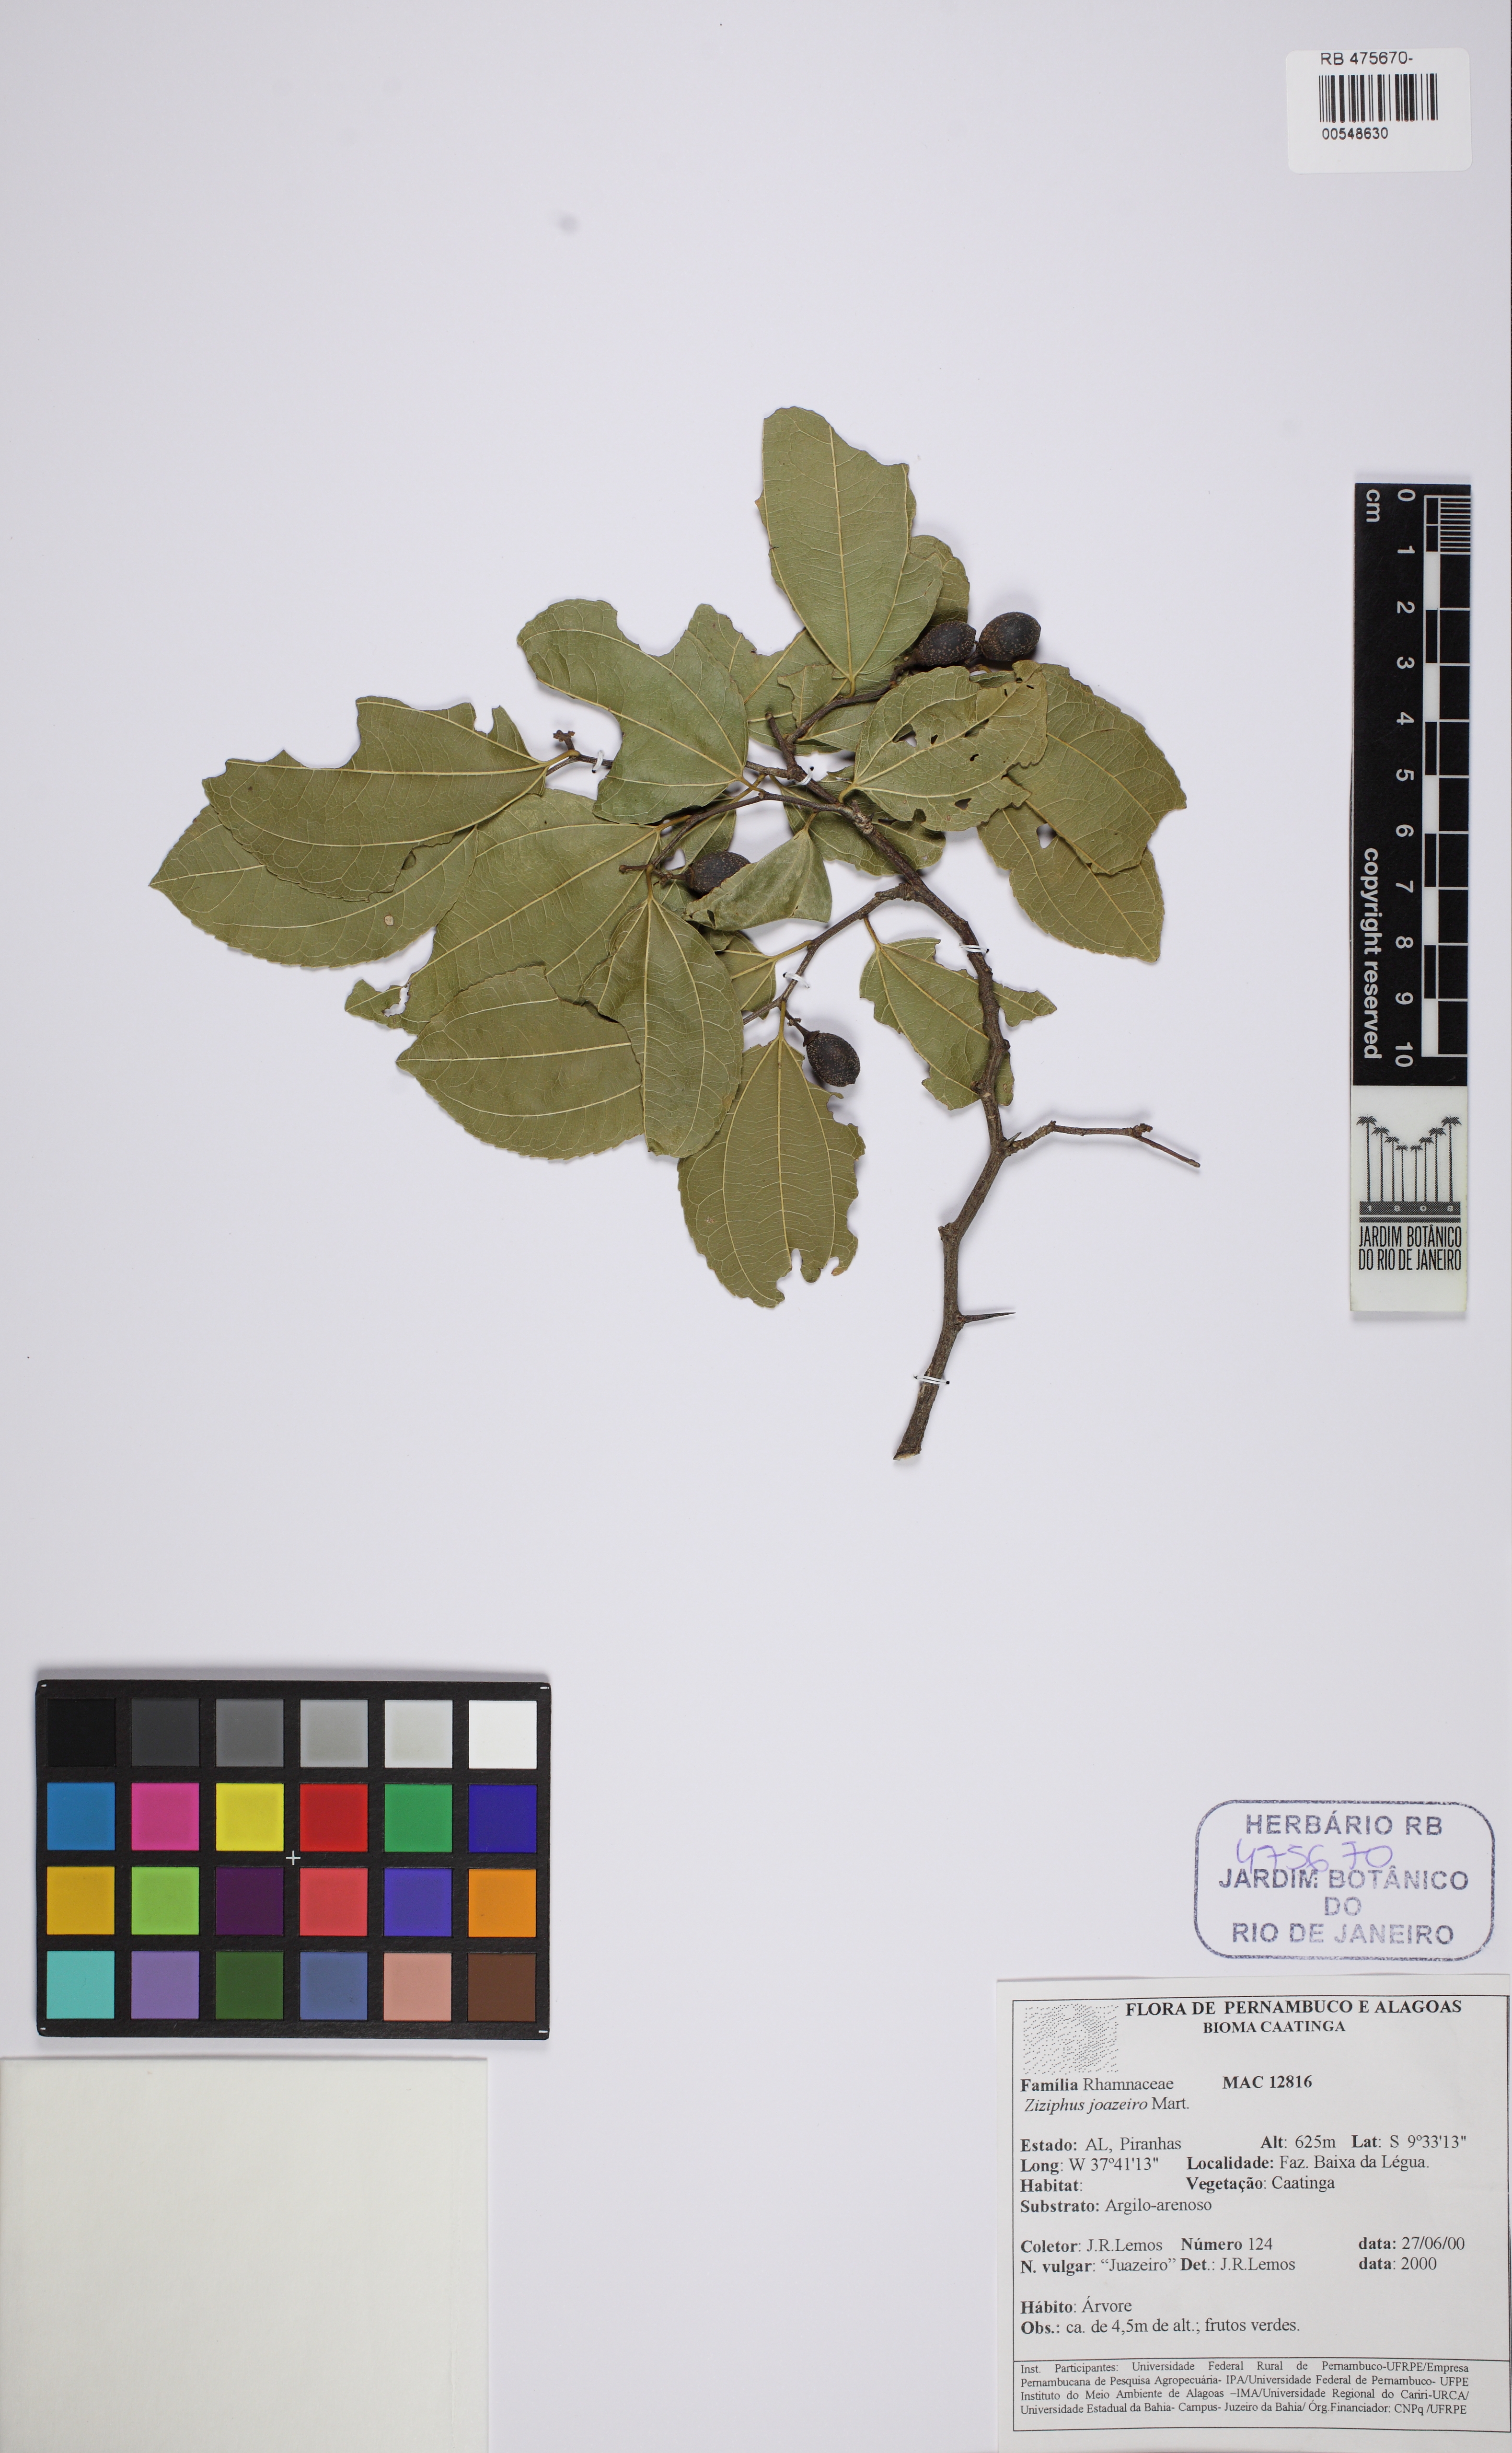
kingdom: Plantae
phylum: Tracheophyta
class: Magnoliopsida
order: Rosales
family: Rhamnaceae
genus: Sarcomphalus
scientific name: Sarcomphalus joazeiro
